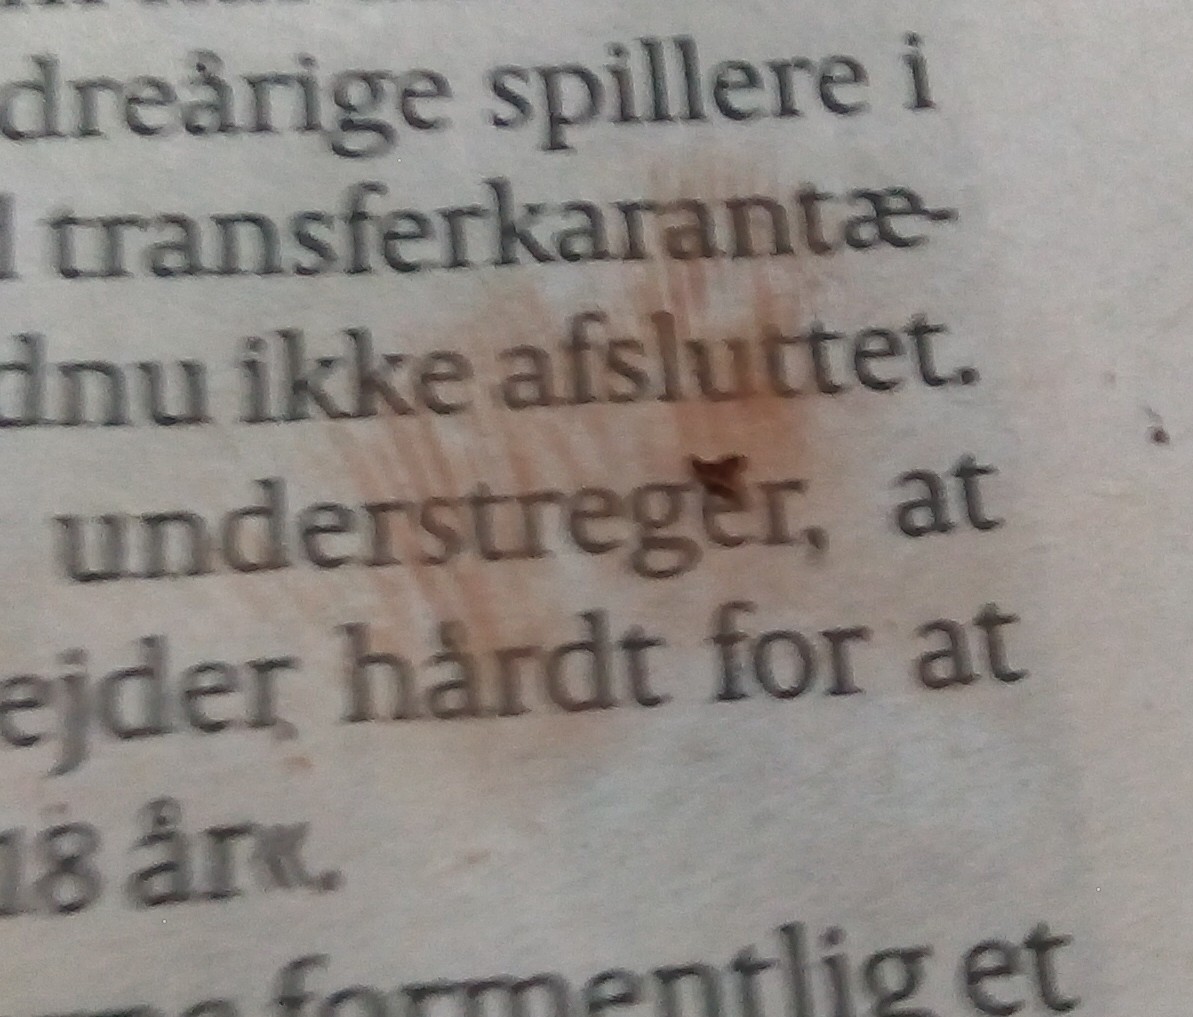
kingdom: Fungi
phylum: Basidiomycota
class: Agaricomycetes
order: Agaricales
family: Entolomataceae
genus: Entoloma
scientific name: Entoloma
